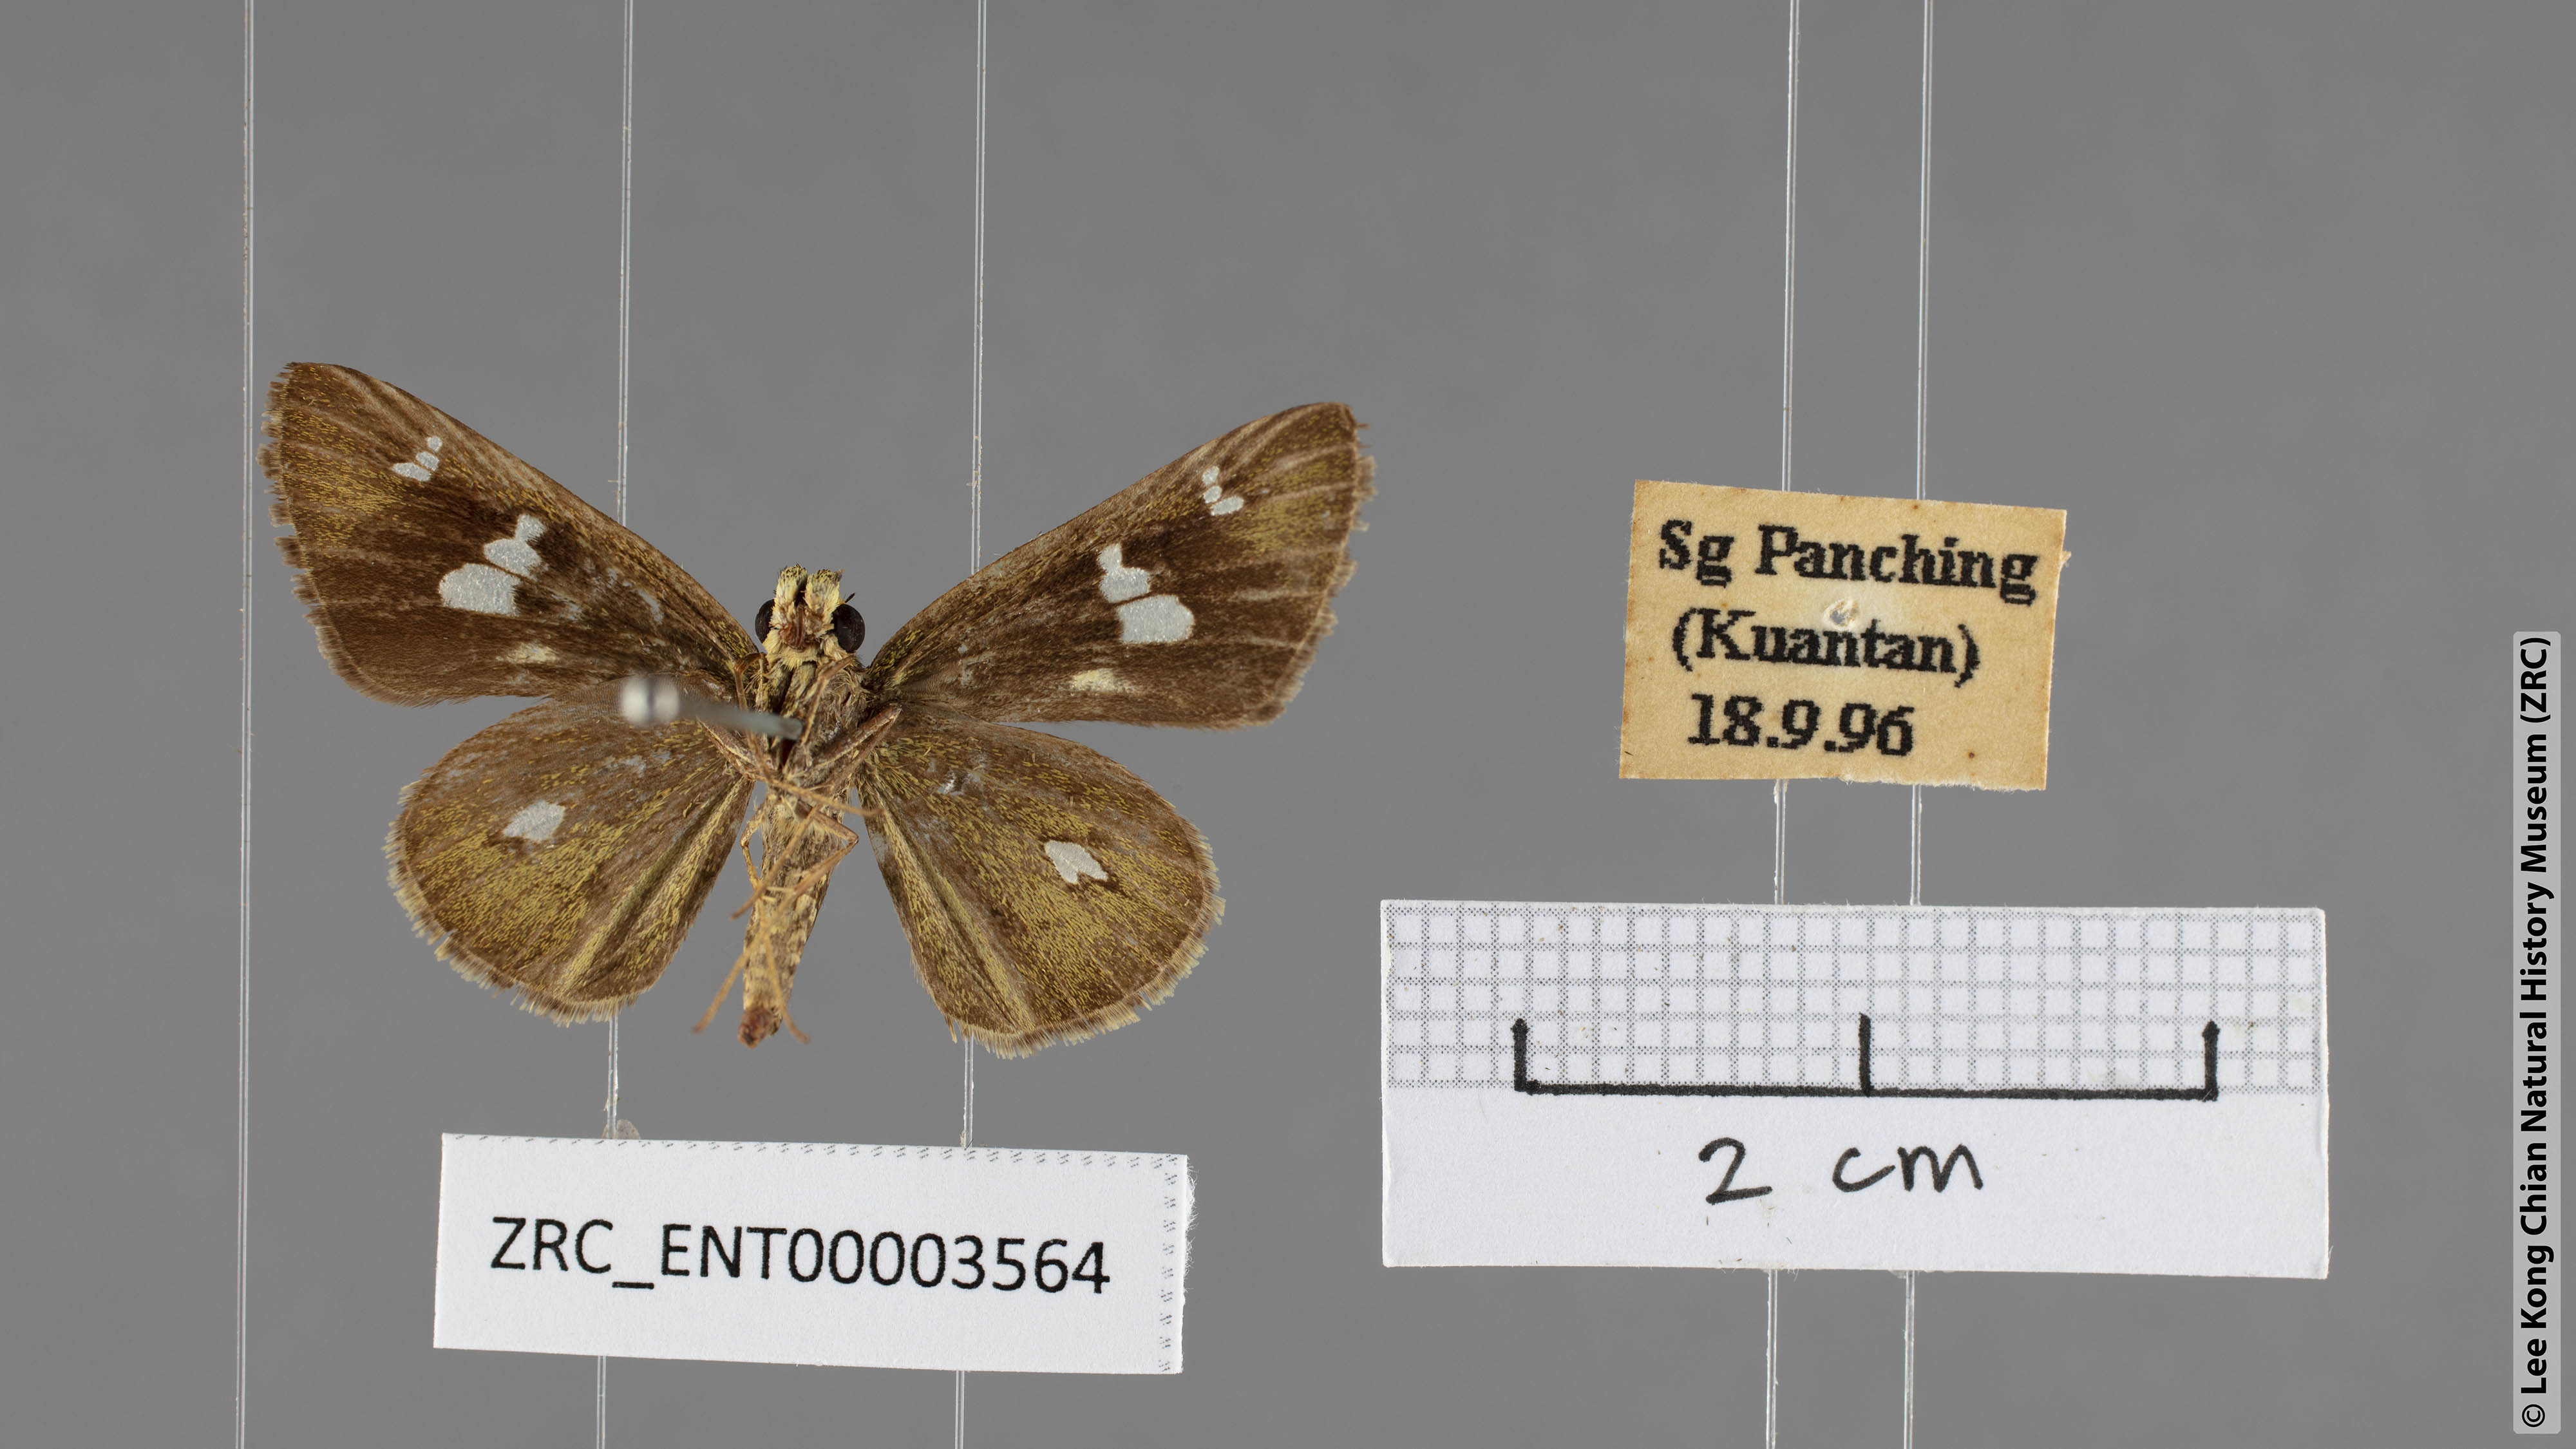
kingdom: Animalia
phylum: Arthropoda
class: Insecta
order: Lepidoptera
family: Hesperiidae
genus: Suastus
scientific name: Suastus minuta
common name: Small palm bob
